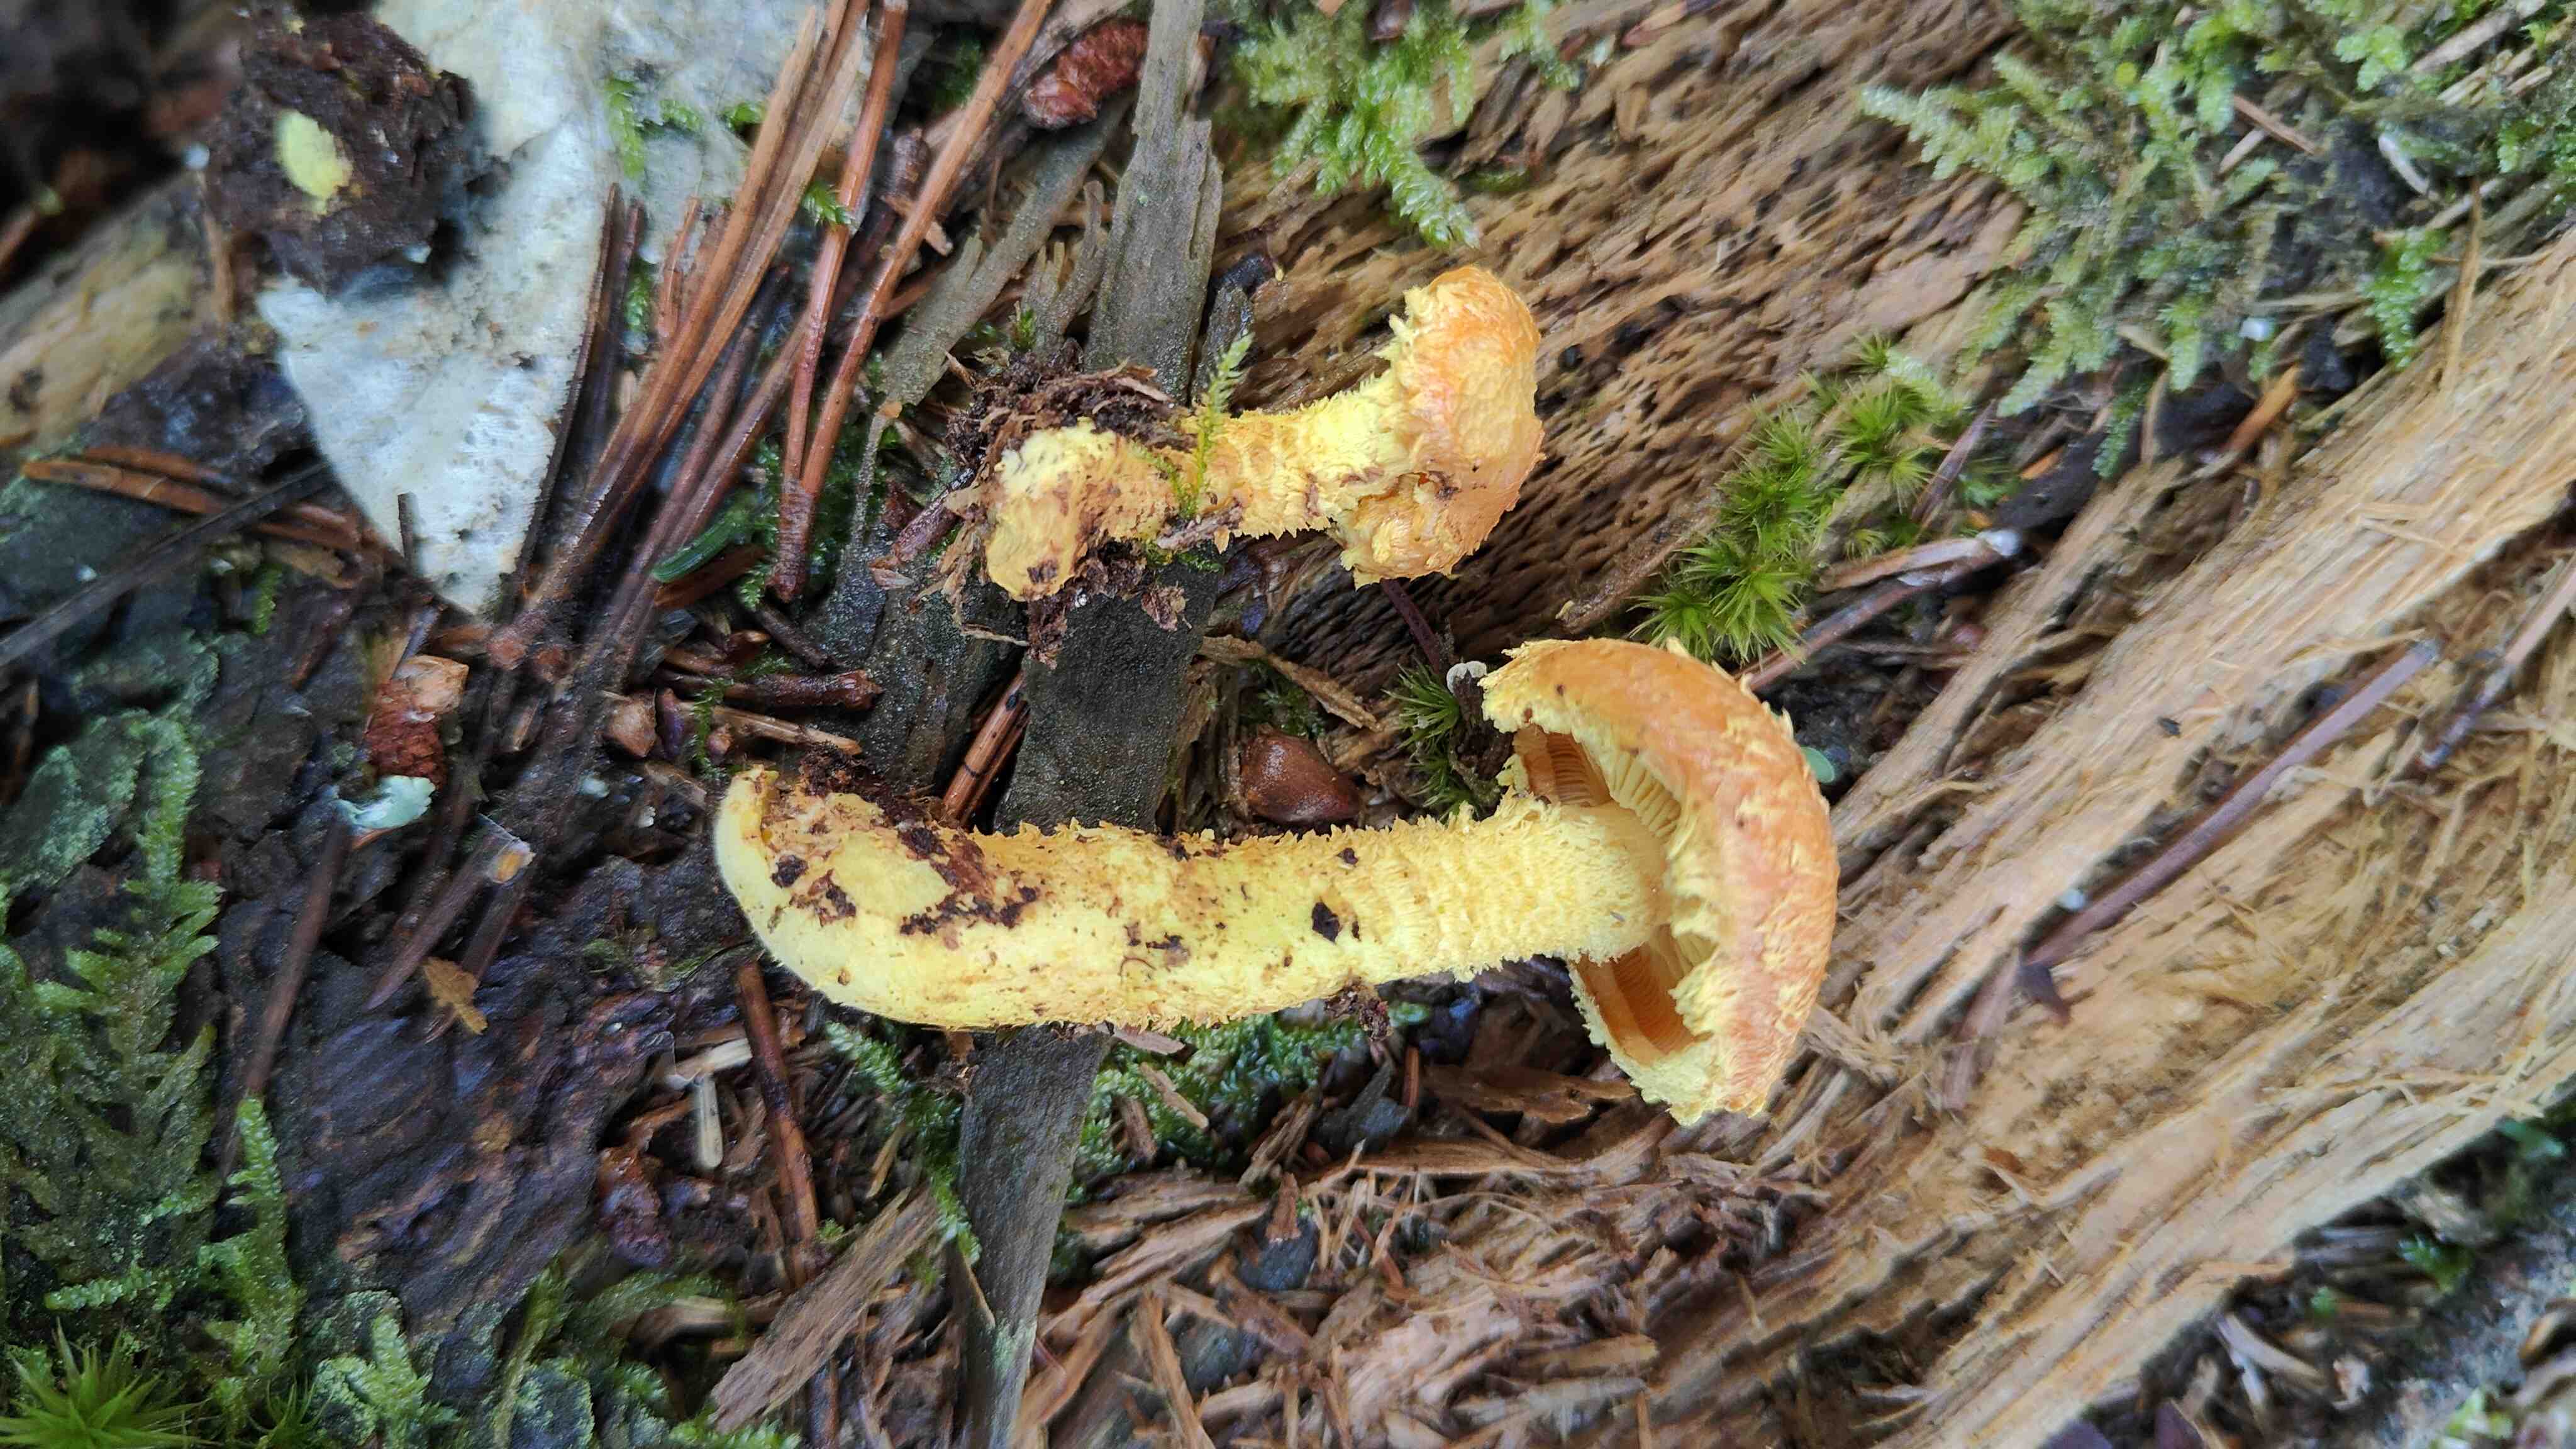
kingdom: Fungi
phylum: Basidiomycota
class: Agaricomycetes
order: Agaricales
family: Strophariaceae
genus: Pholiota
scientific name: Pholiota flammans
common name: flamme-skælhat
